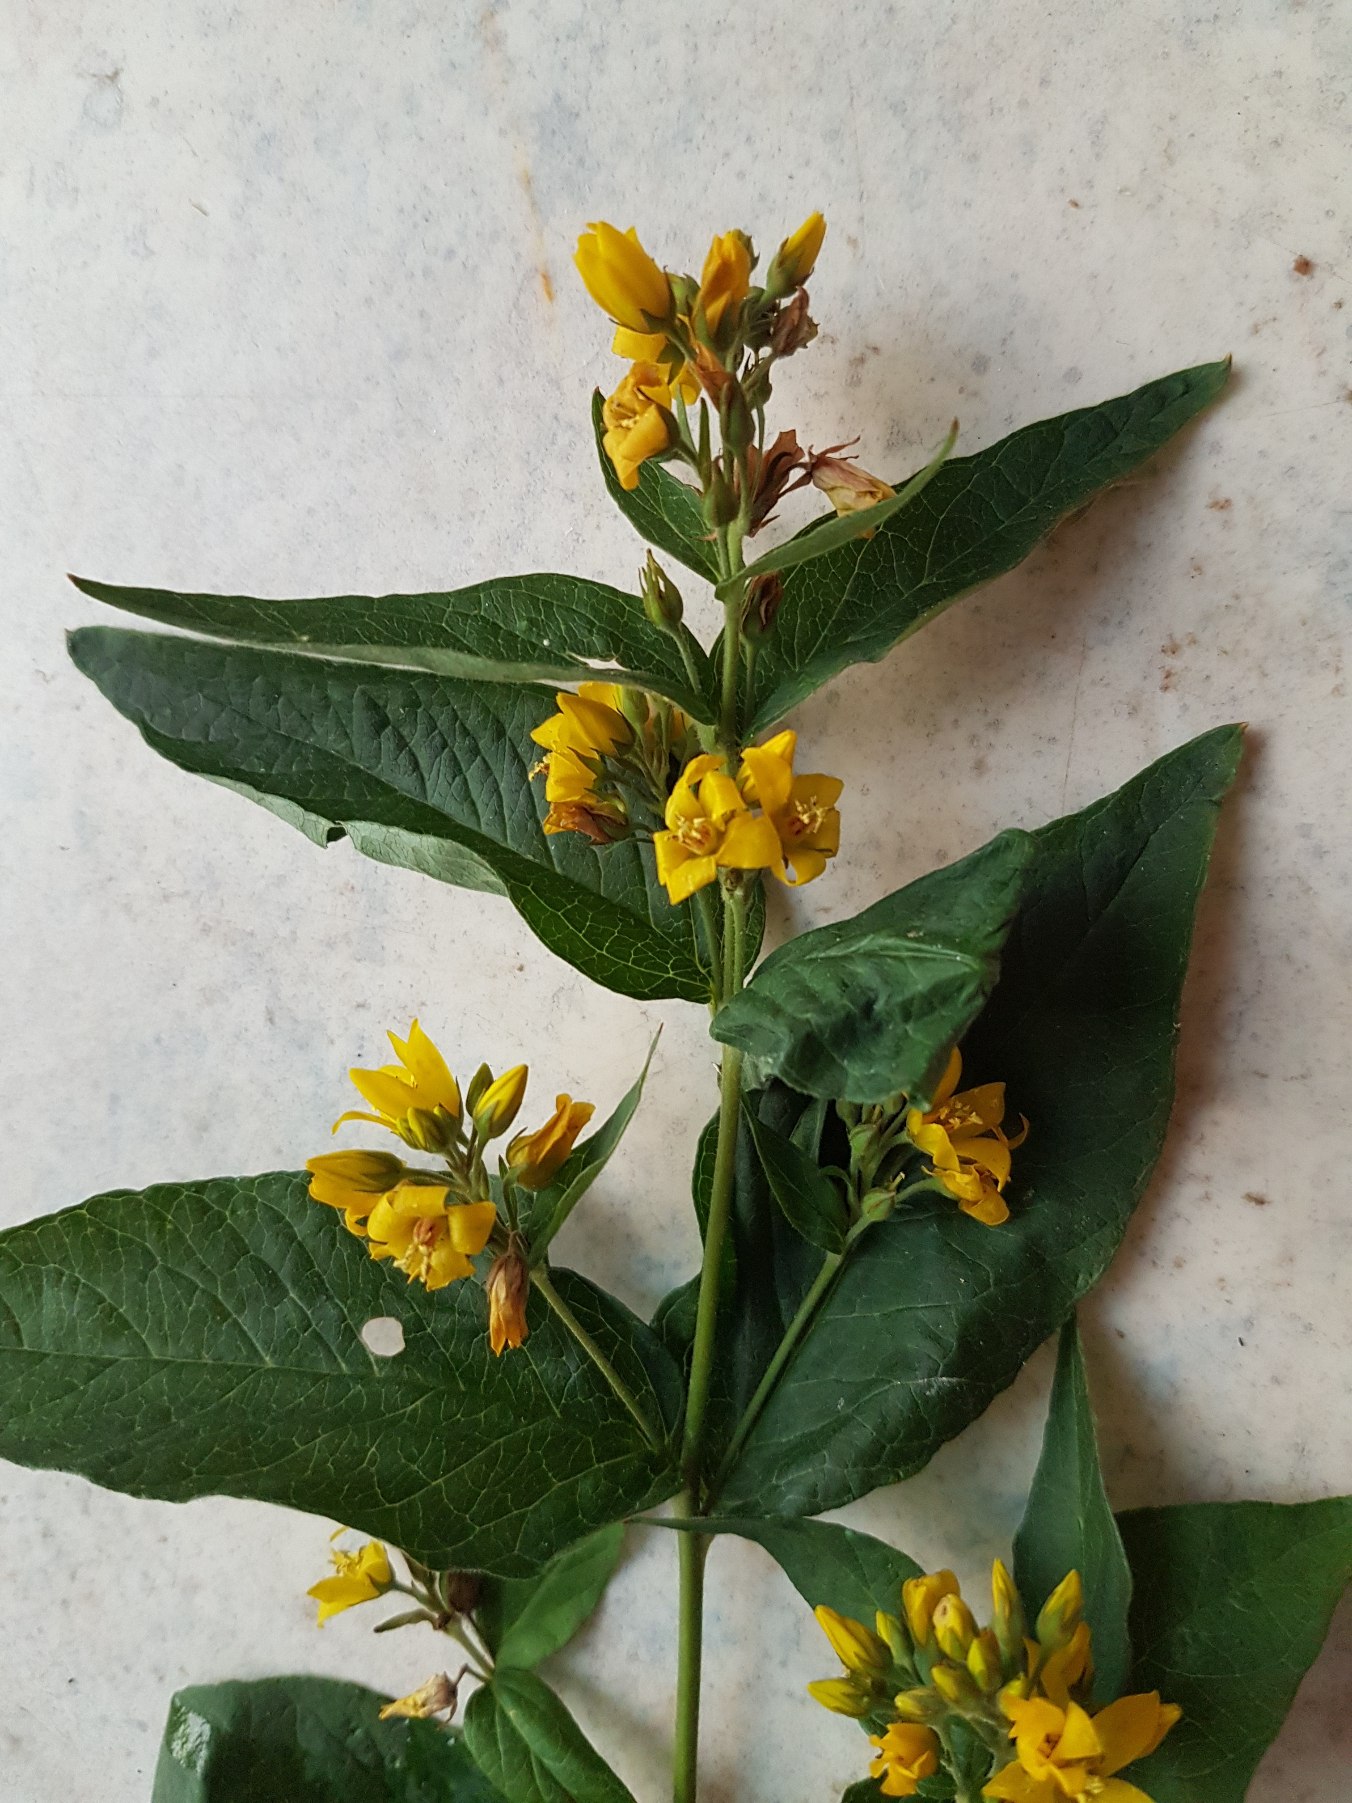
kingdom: Plantae
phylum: Tracheophyta
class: Magnoliopsida
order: Ericales
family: Primulaceae
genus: Lysimachia
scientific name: Lysimachia vulgaris
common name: Almindelig fredløs
